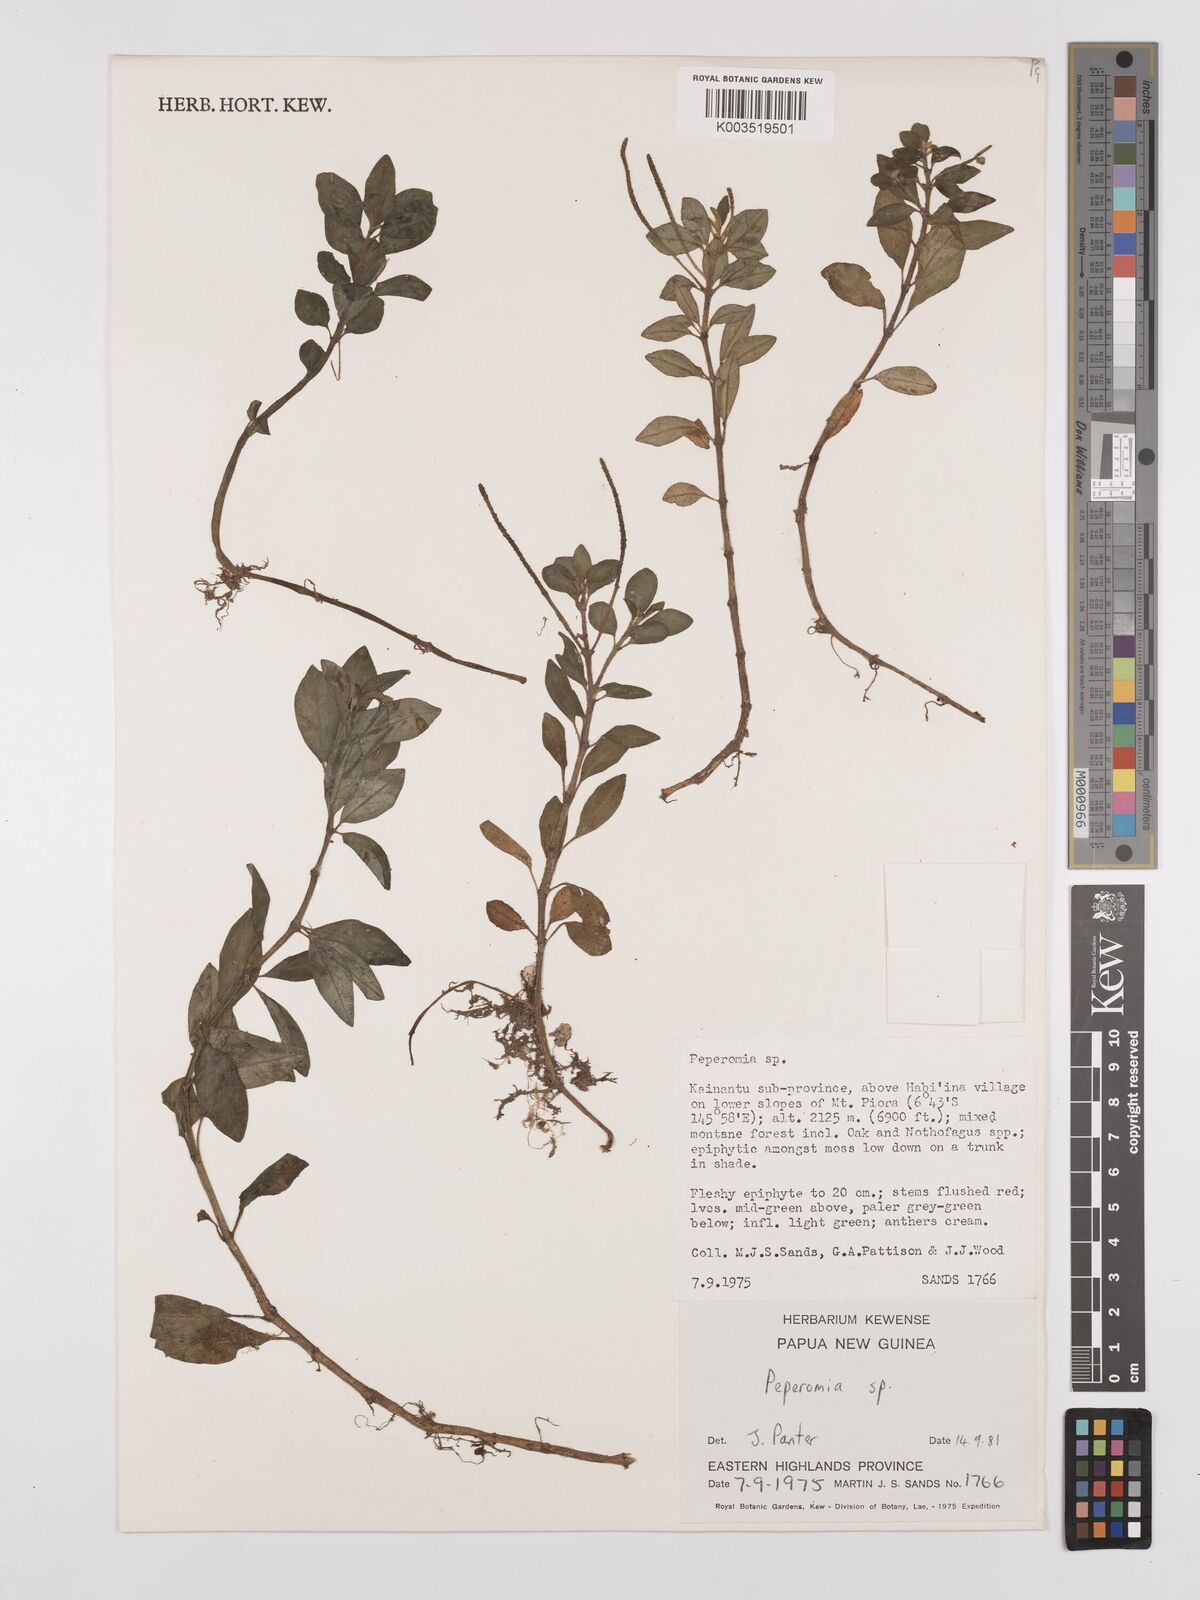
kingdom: Plantae
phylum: Tracheophyta
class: Magnoliopsida
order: Piperales
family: Piperaceae
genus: Peperomia
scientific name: Peperomia
